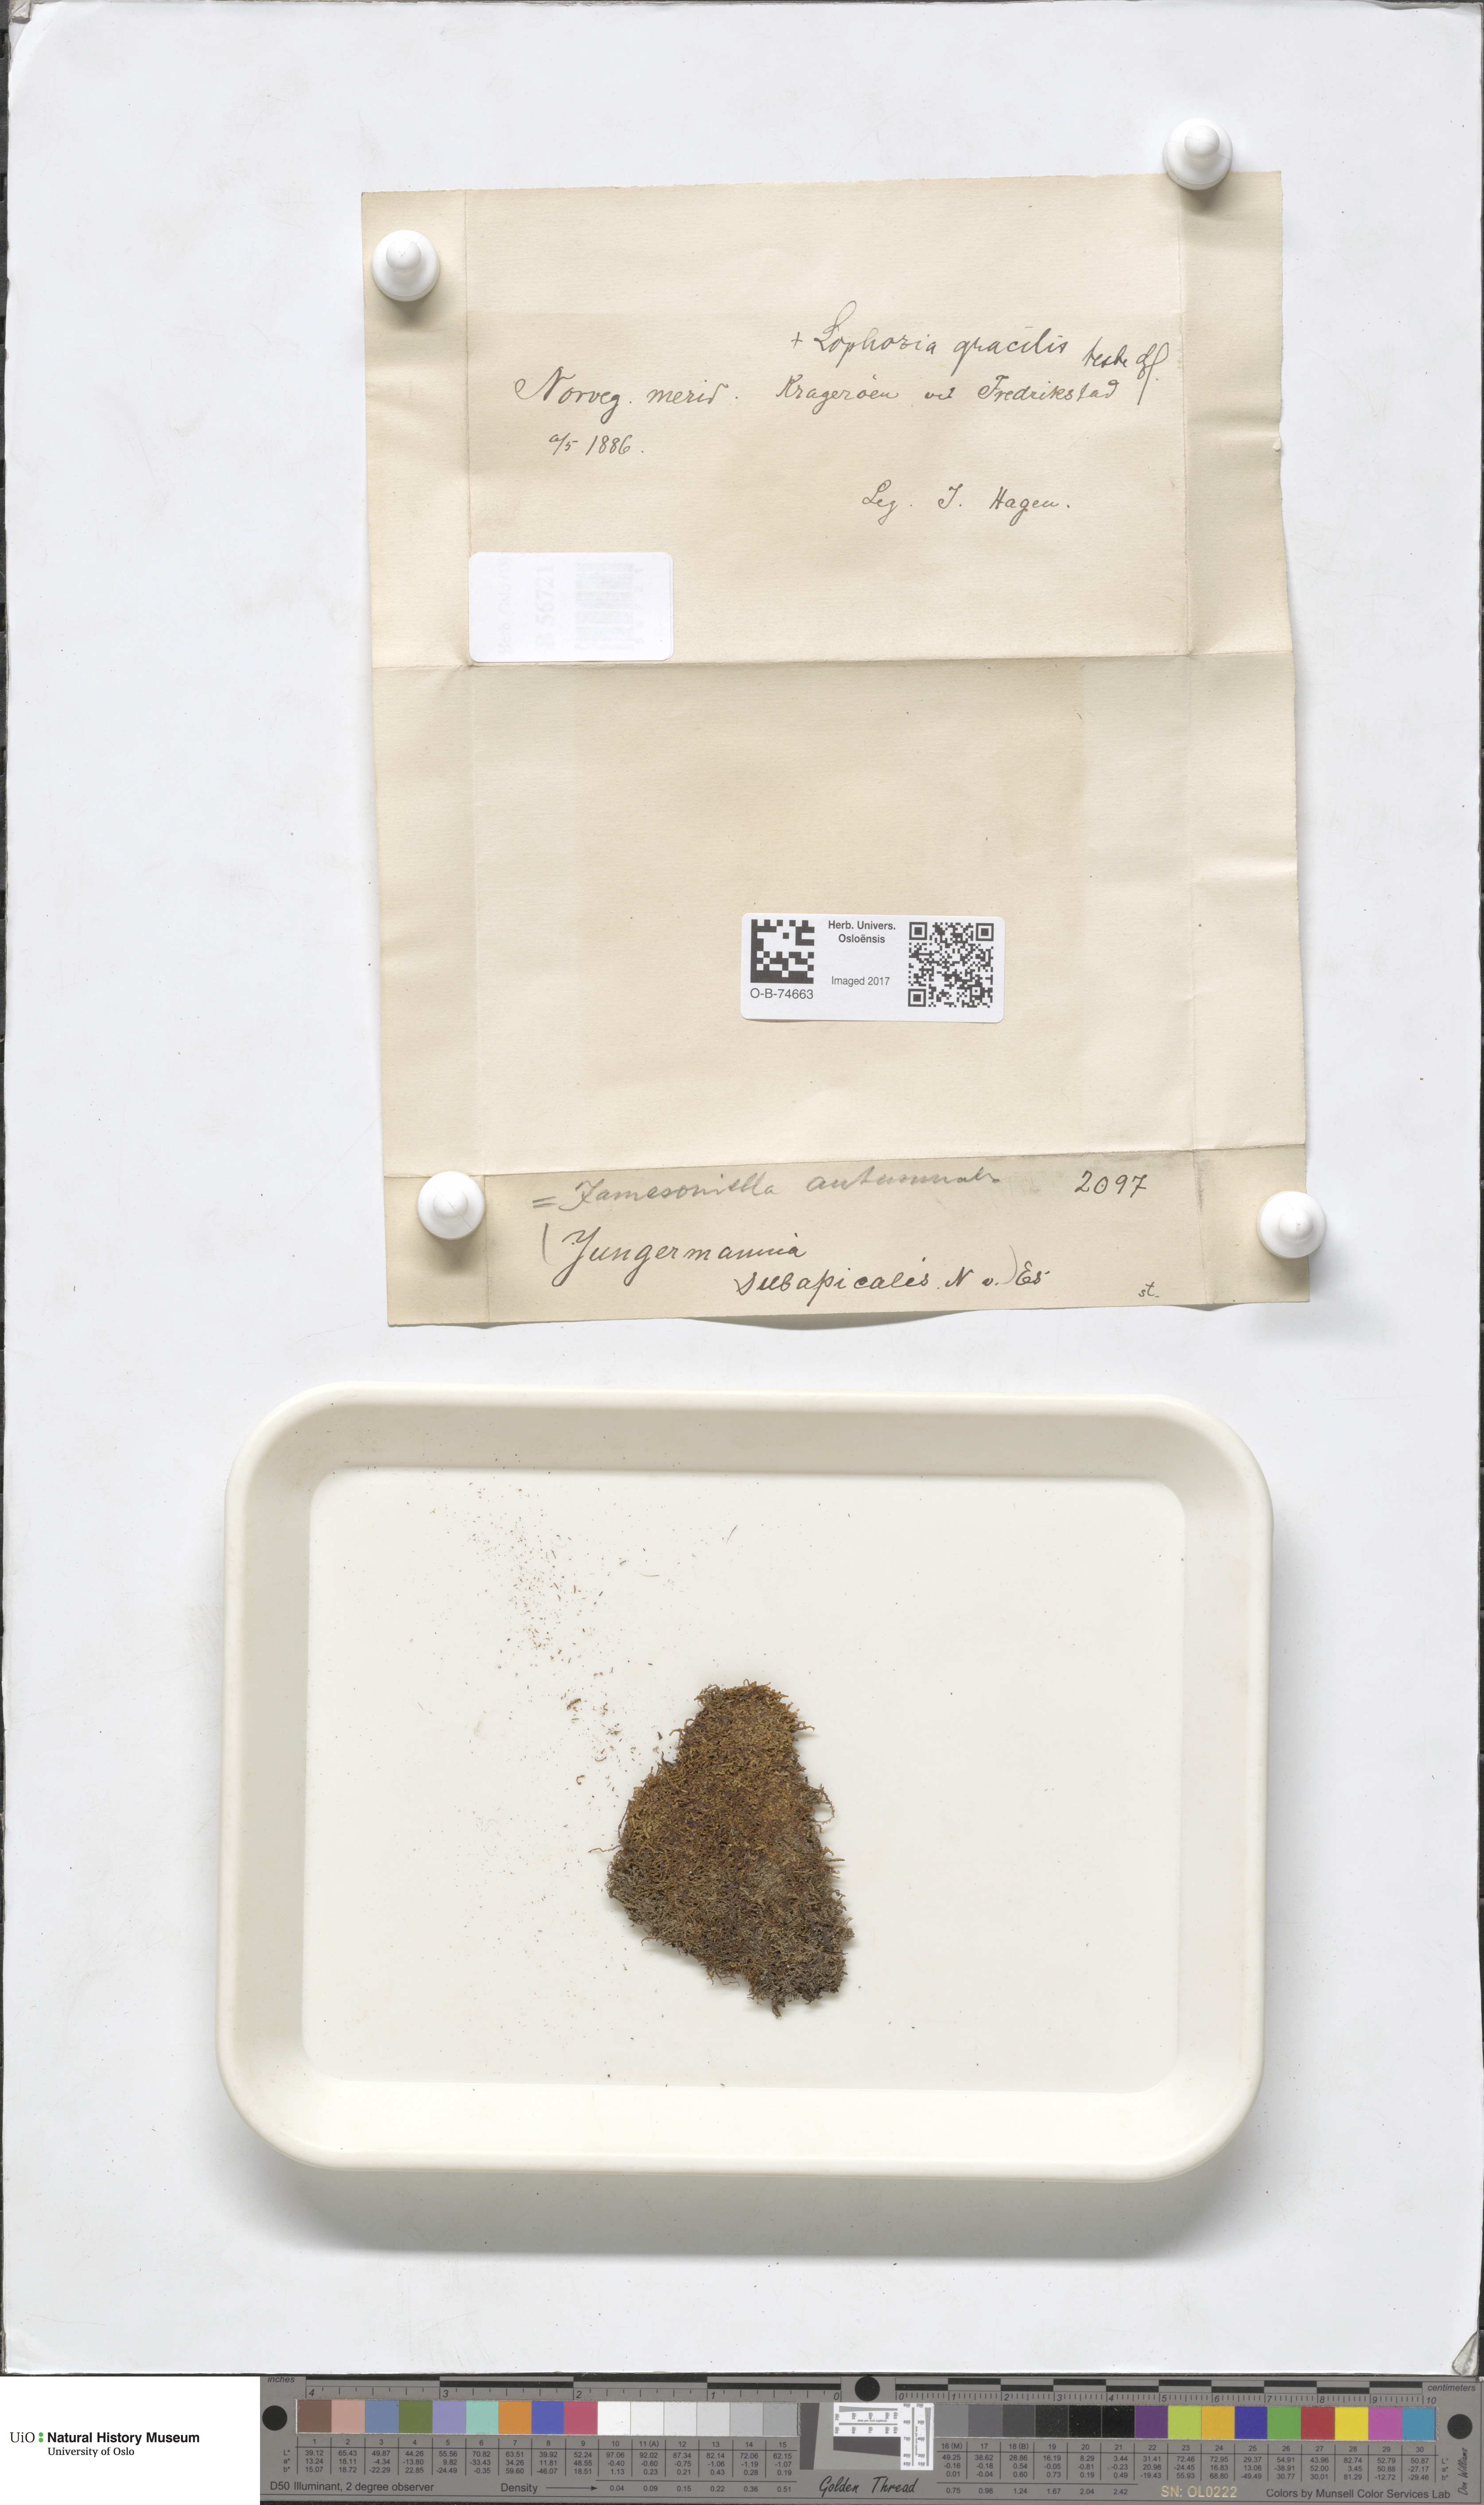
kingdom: Plantae
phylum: Marchantiophyta
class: Jungermanniopsida
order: Jungermanniales
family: Adelanthaceae
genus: Syzygiella
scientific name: Syzygiella autumnalis
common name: Jameson's liverwort
